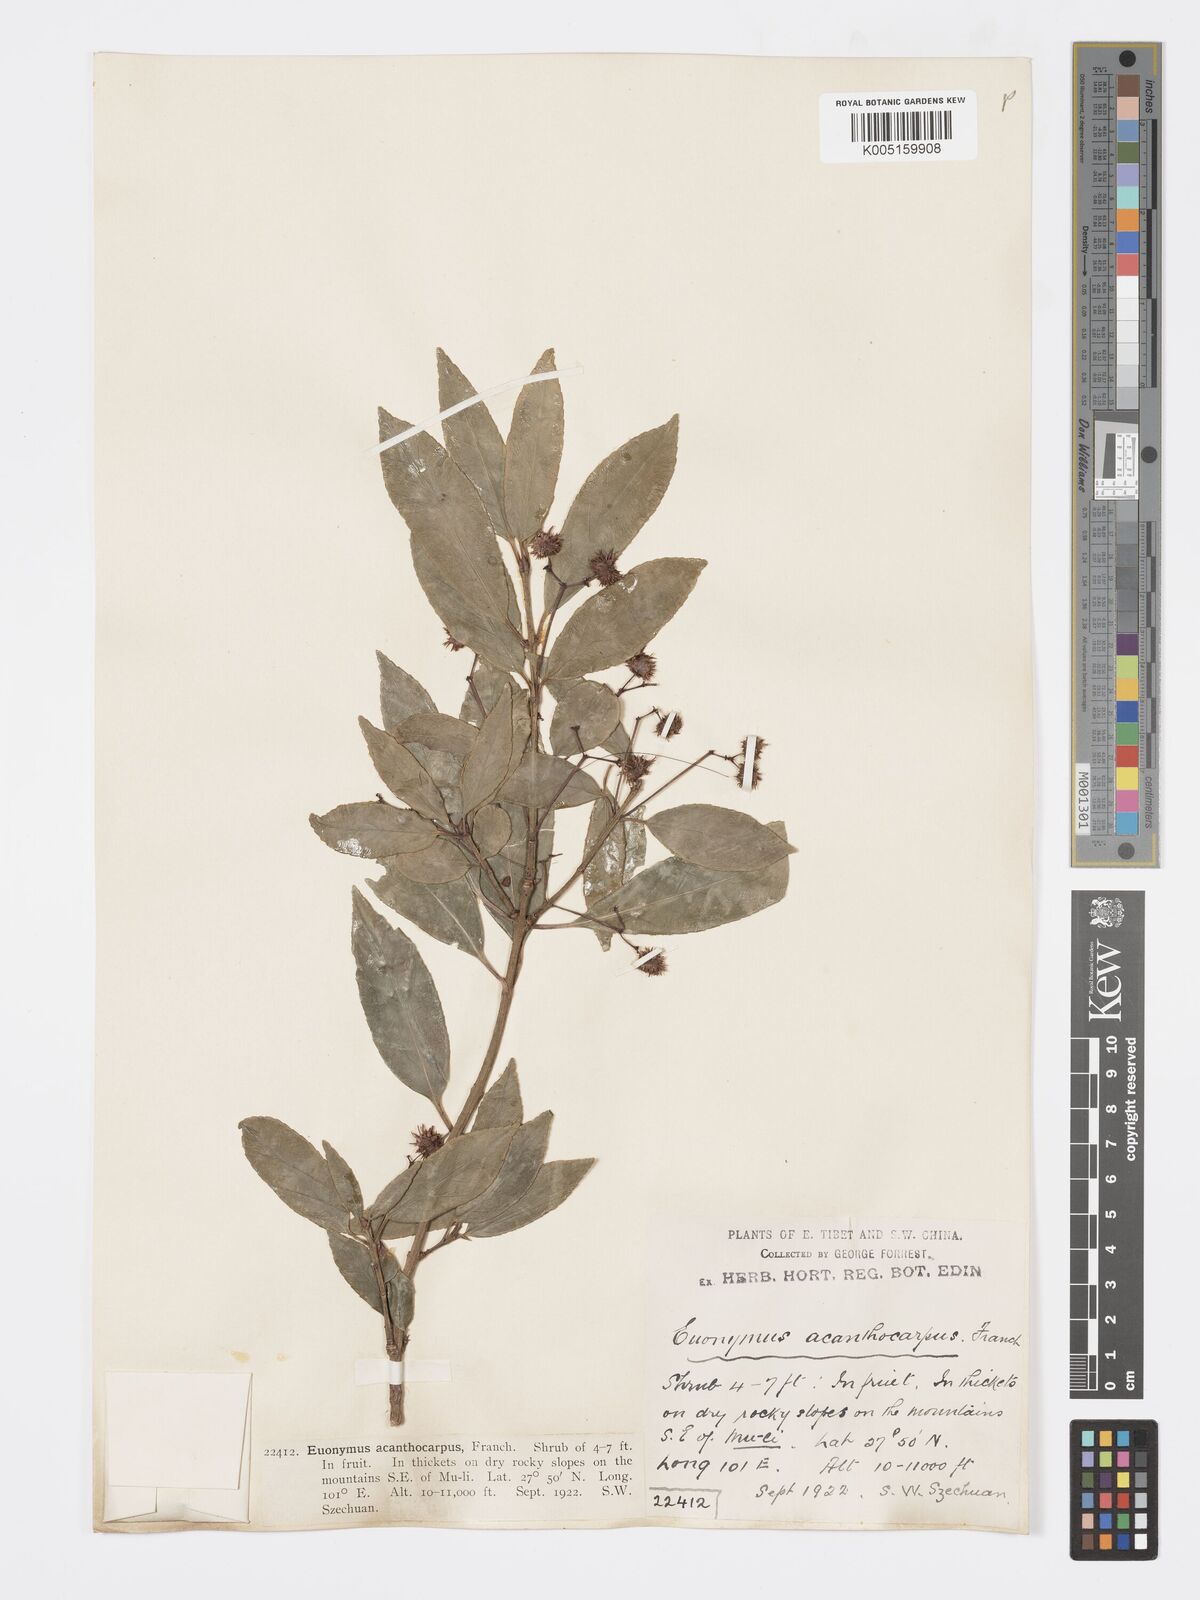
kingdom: Plantae
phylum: Tracheophyta
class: Magnoliopsida
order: Celastrales
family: Celastraceae
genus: Euonymus
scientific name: Euonymus acanthocarpus
